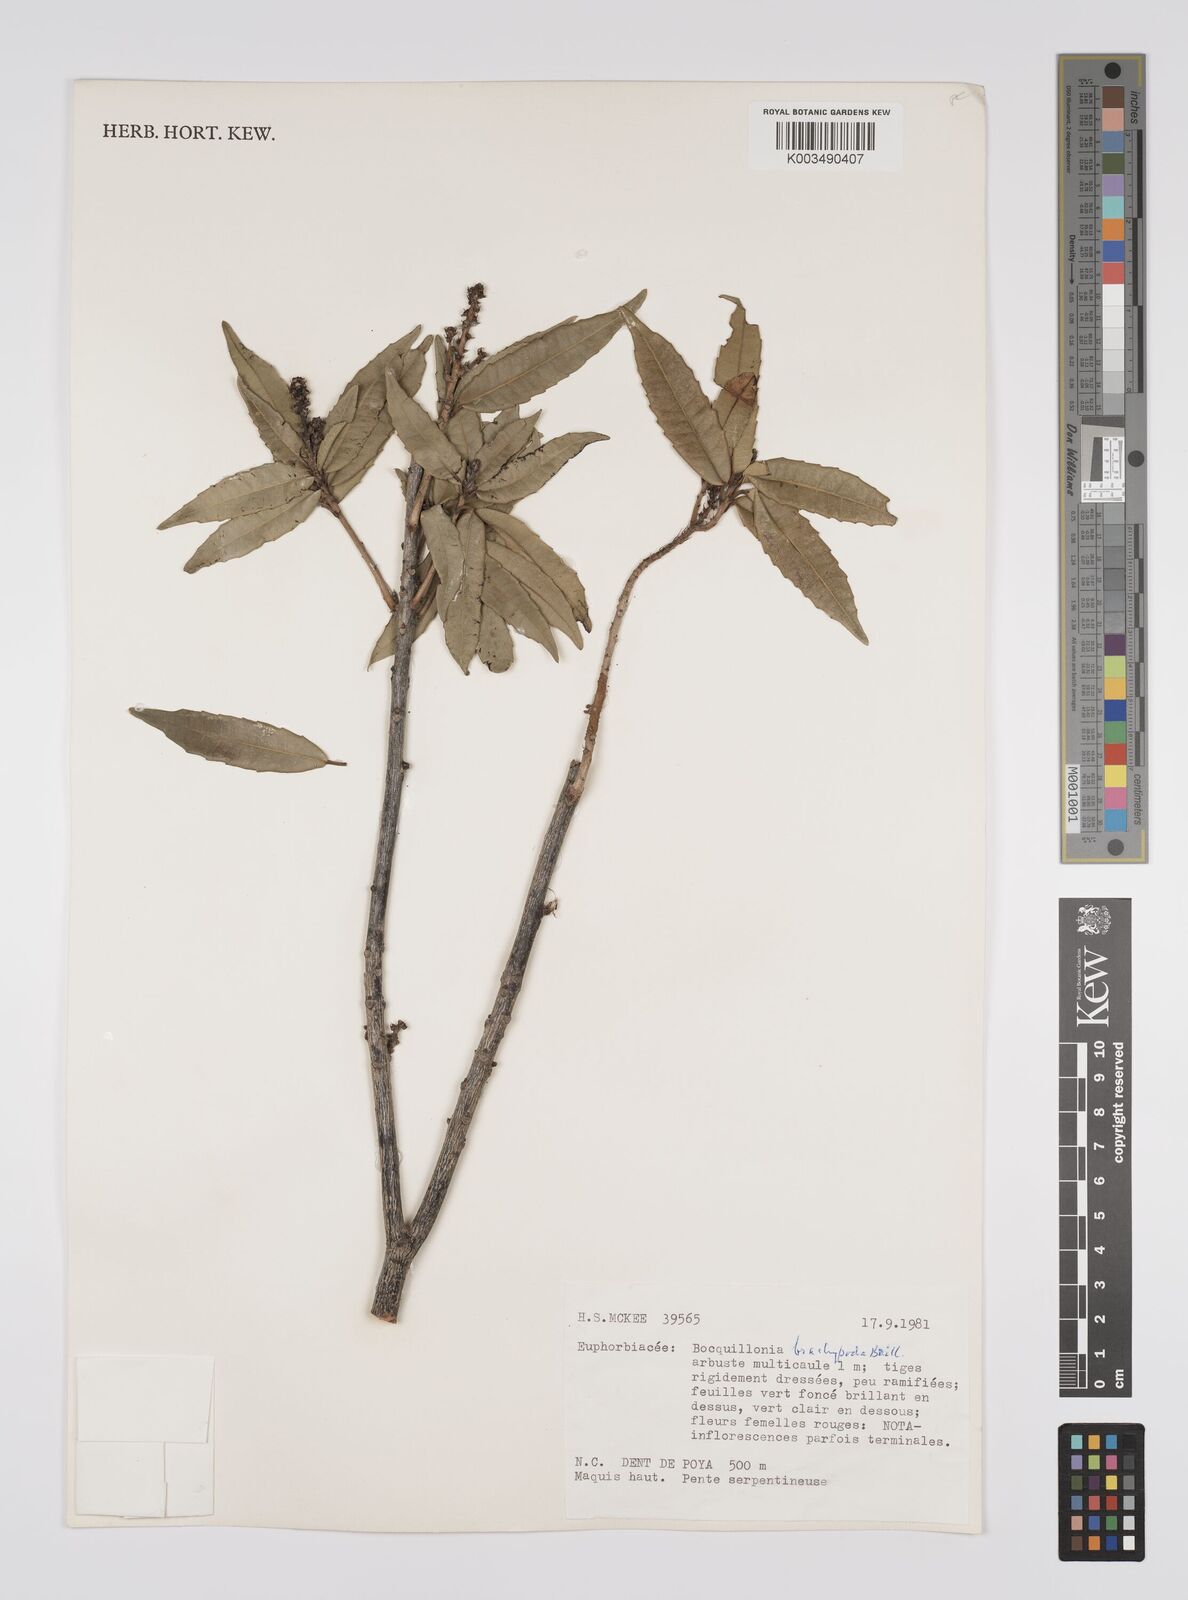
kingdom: Plantae
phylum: Tracheophyta
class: Magnoliopsida
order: Malpighiales
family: Euphorbiaceae
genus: Bocquillonia
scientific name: Bocquillonia brachypoda
